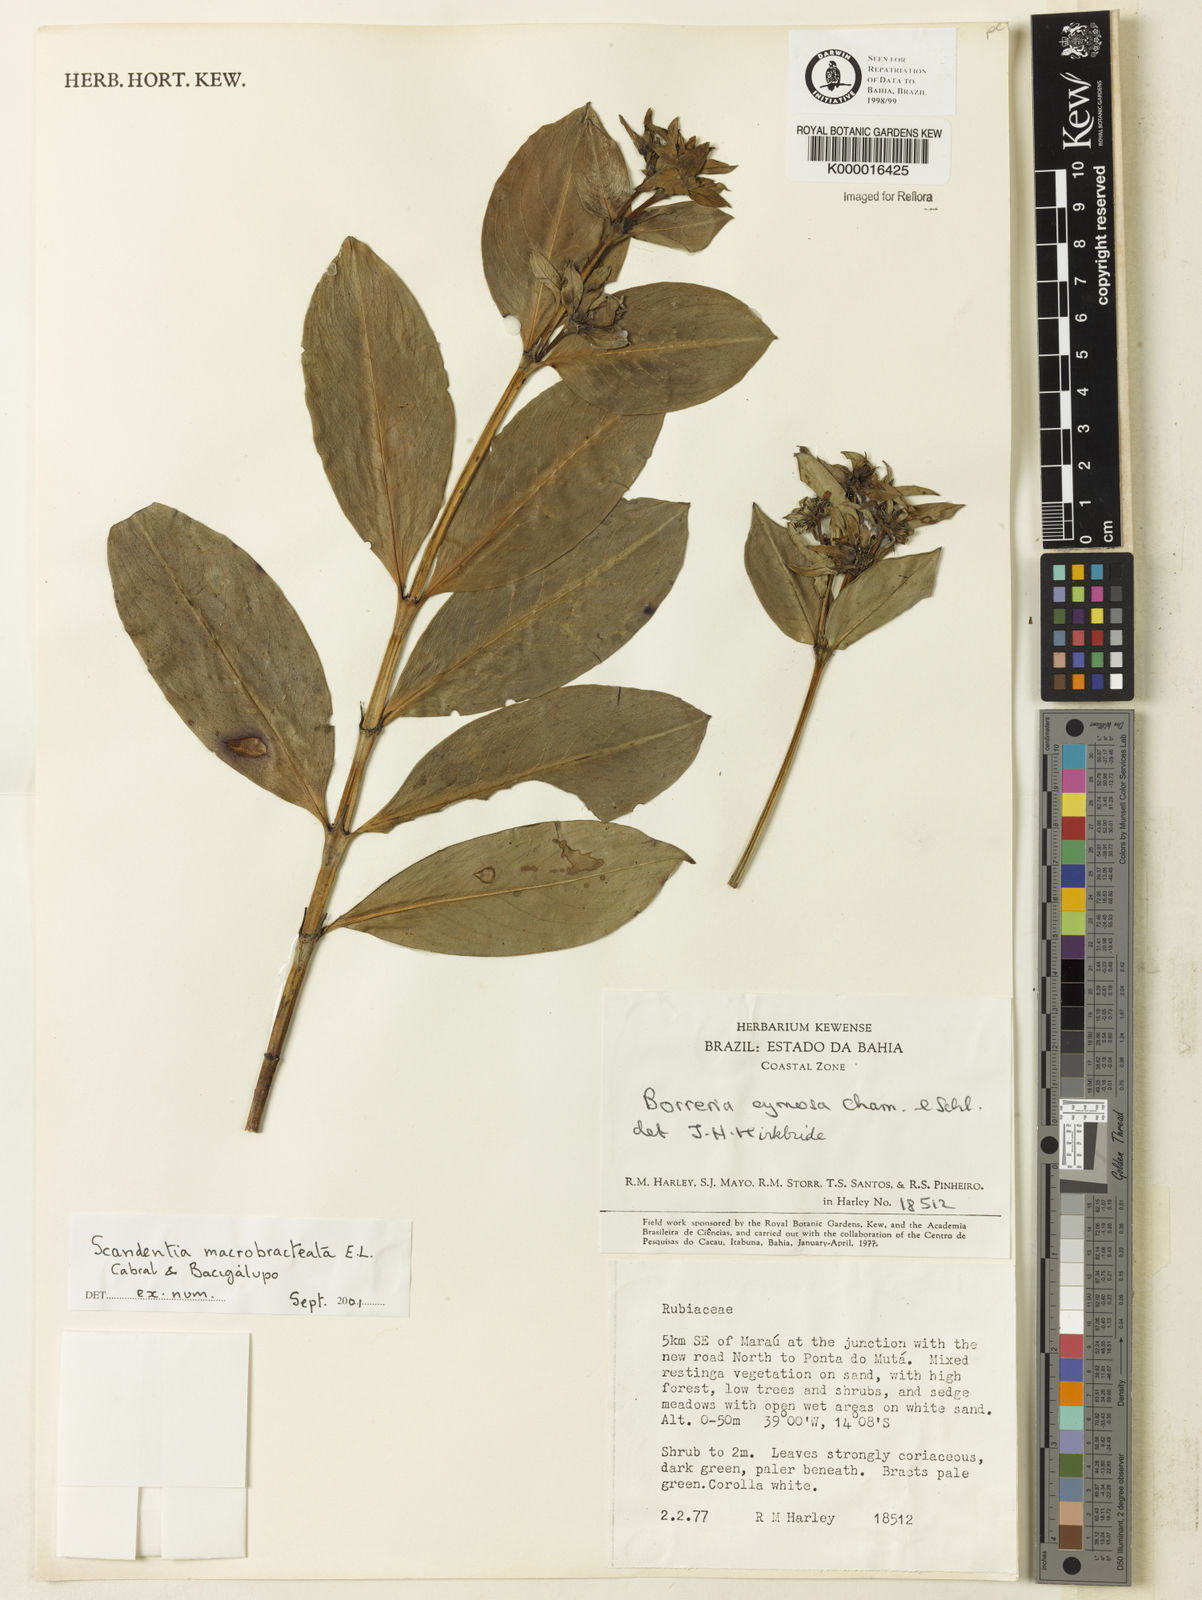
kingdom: Plantae
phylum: Tracheophyta
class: Magnoliopsida
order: Gentianales
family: Rubiaceae
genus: Spermacoce
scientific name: Spermacoce
